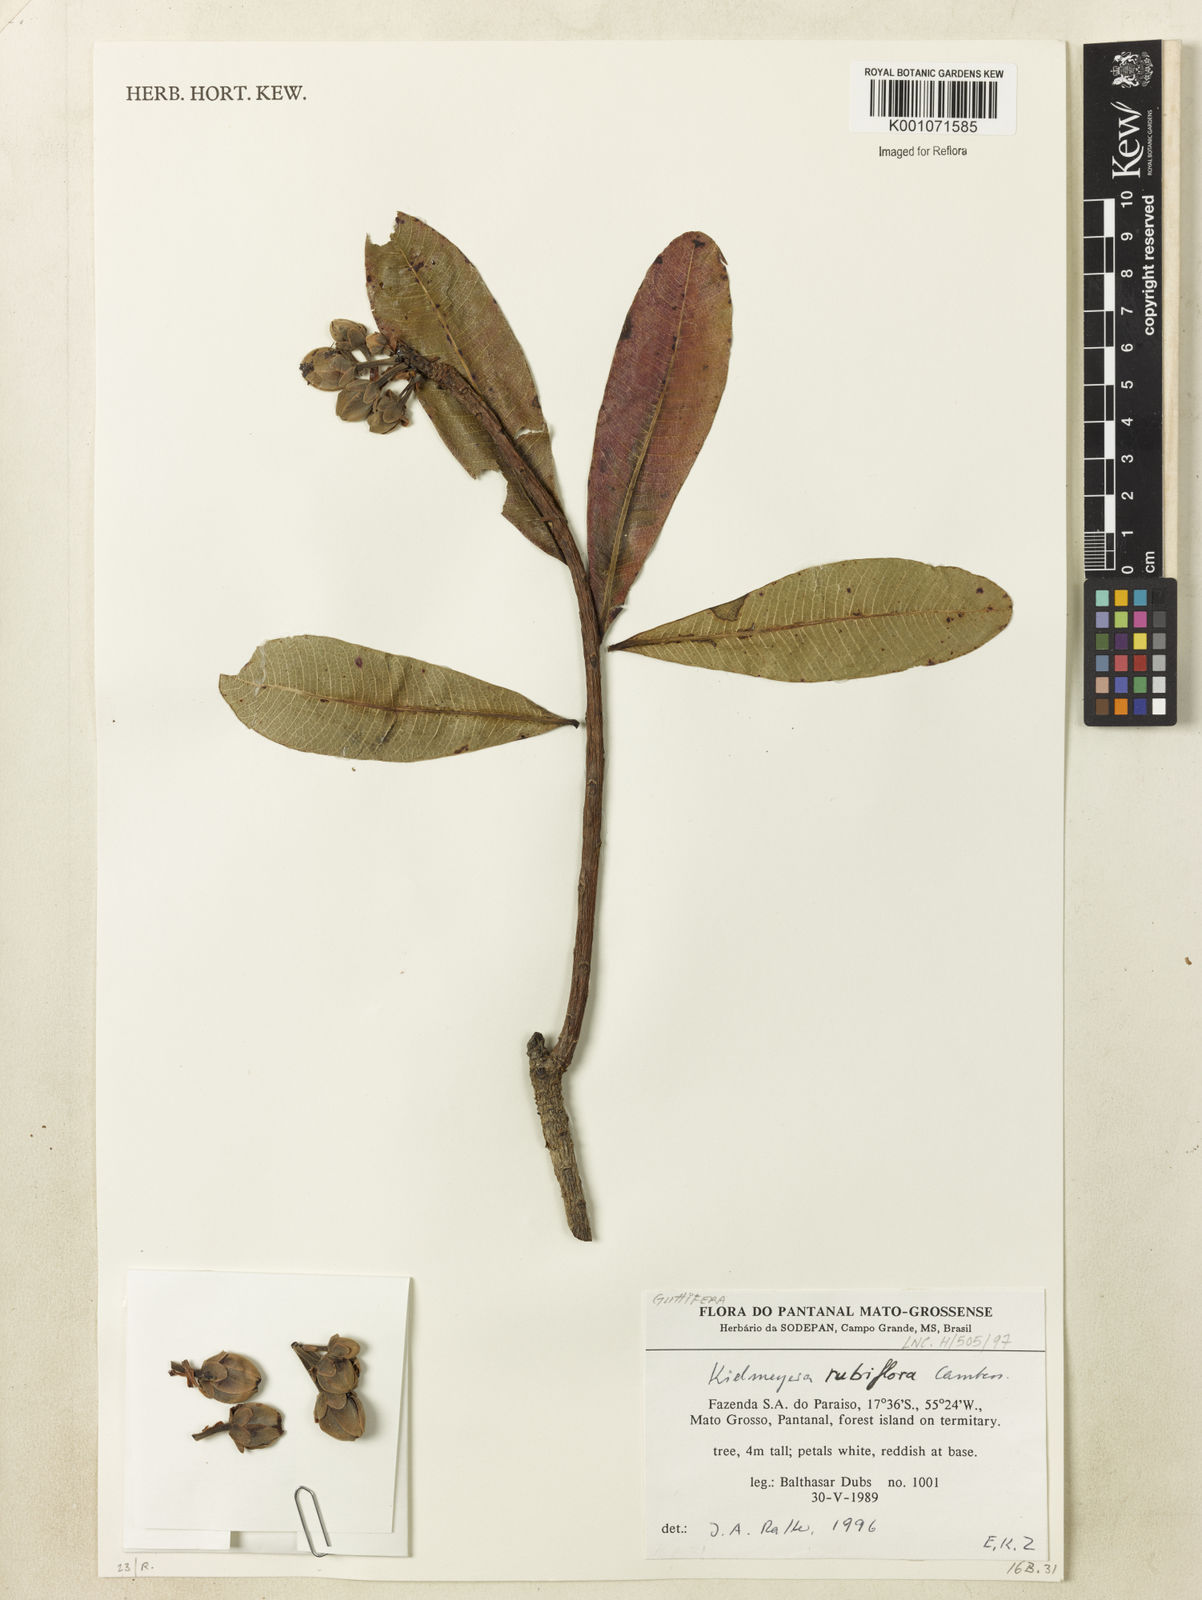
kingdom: Plantae
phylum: Tracheophyta
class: Magnoliopsida
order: Malpighiales
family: Calophyllaceae
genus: Kielmeyera
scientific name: Kielmeyera rubriflora
